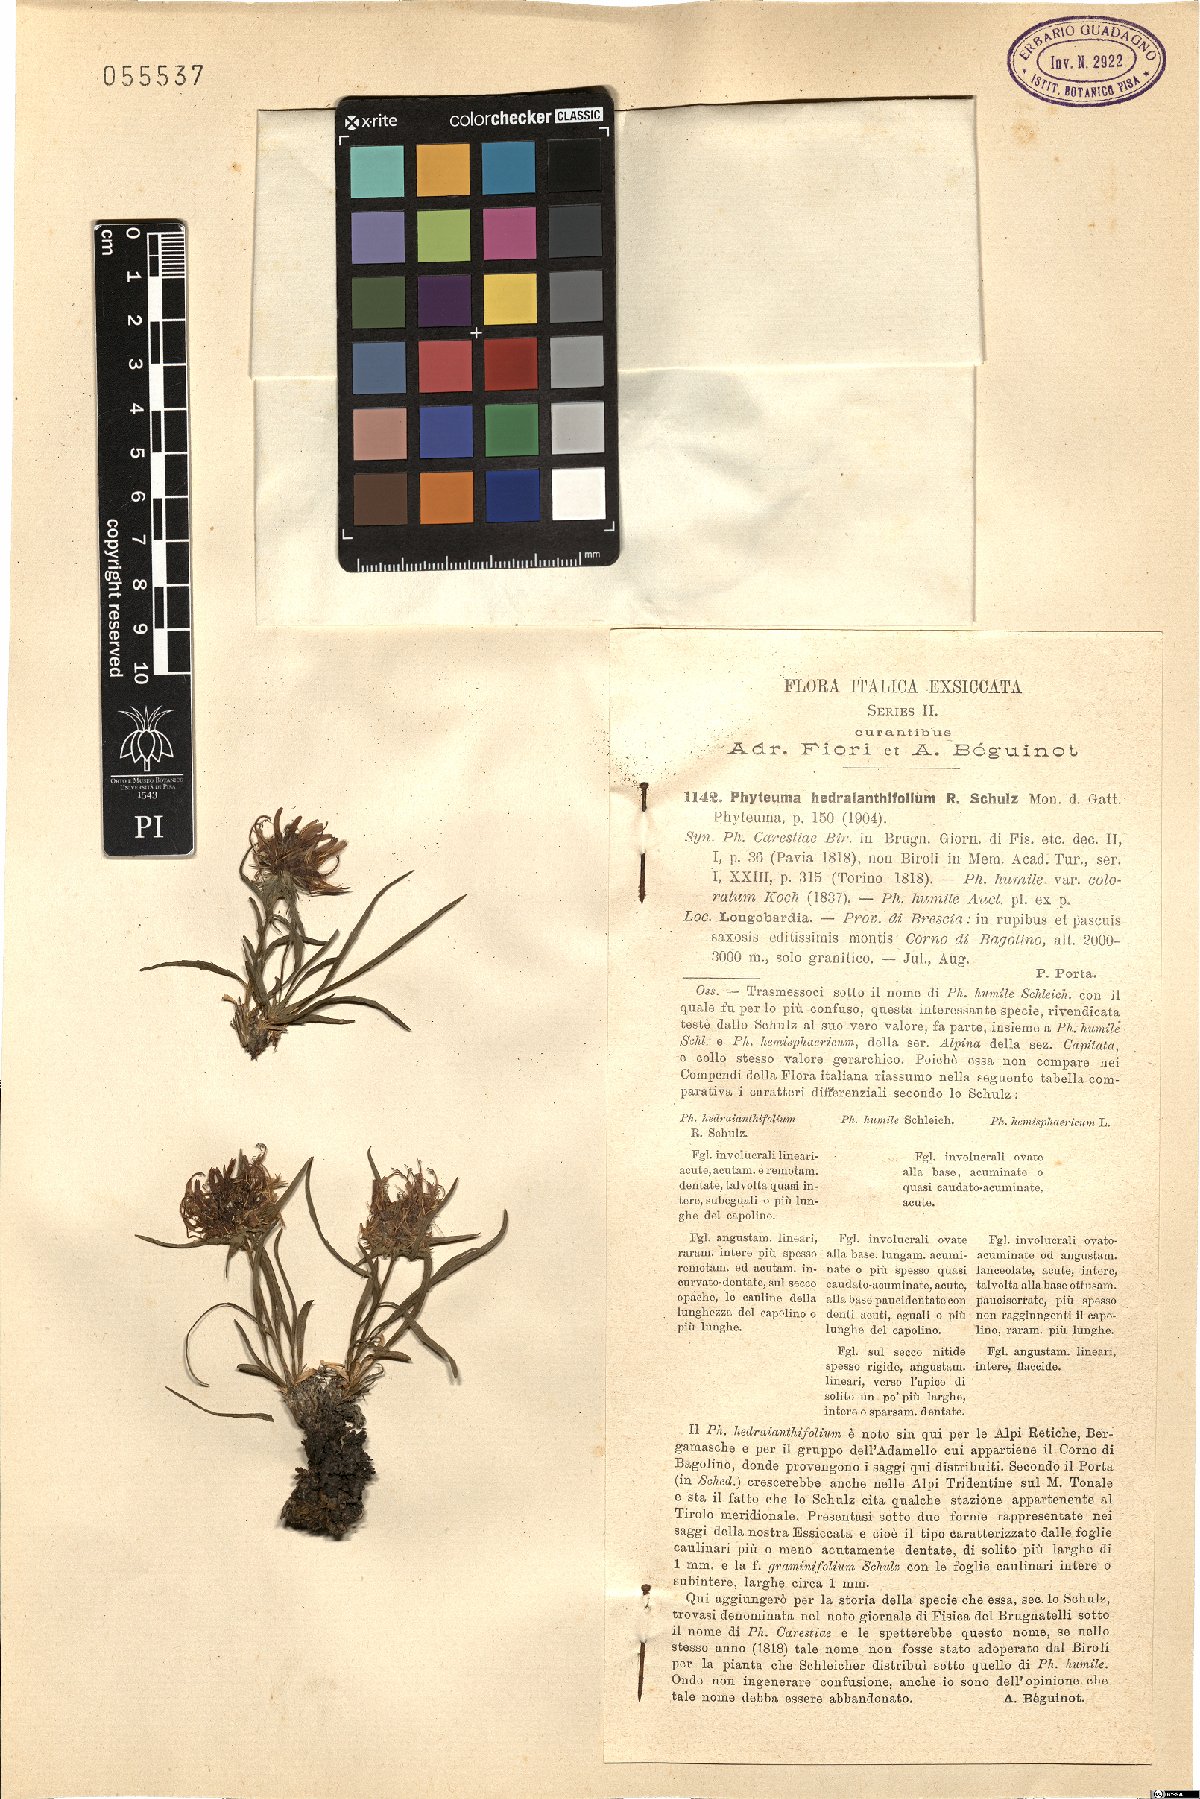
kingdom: Plantae
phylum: Tracheophyta
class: Magnoliopsida
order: Asterales
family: Campanulaceae
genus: Phyteuma
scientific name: Phyteuma hedraianthifolium
